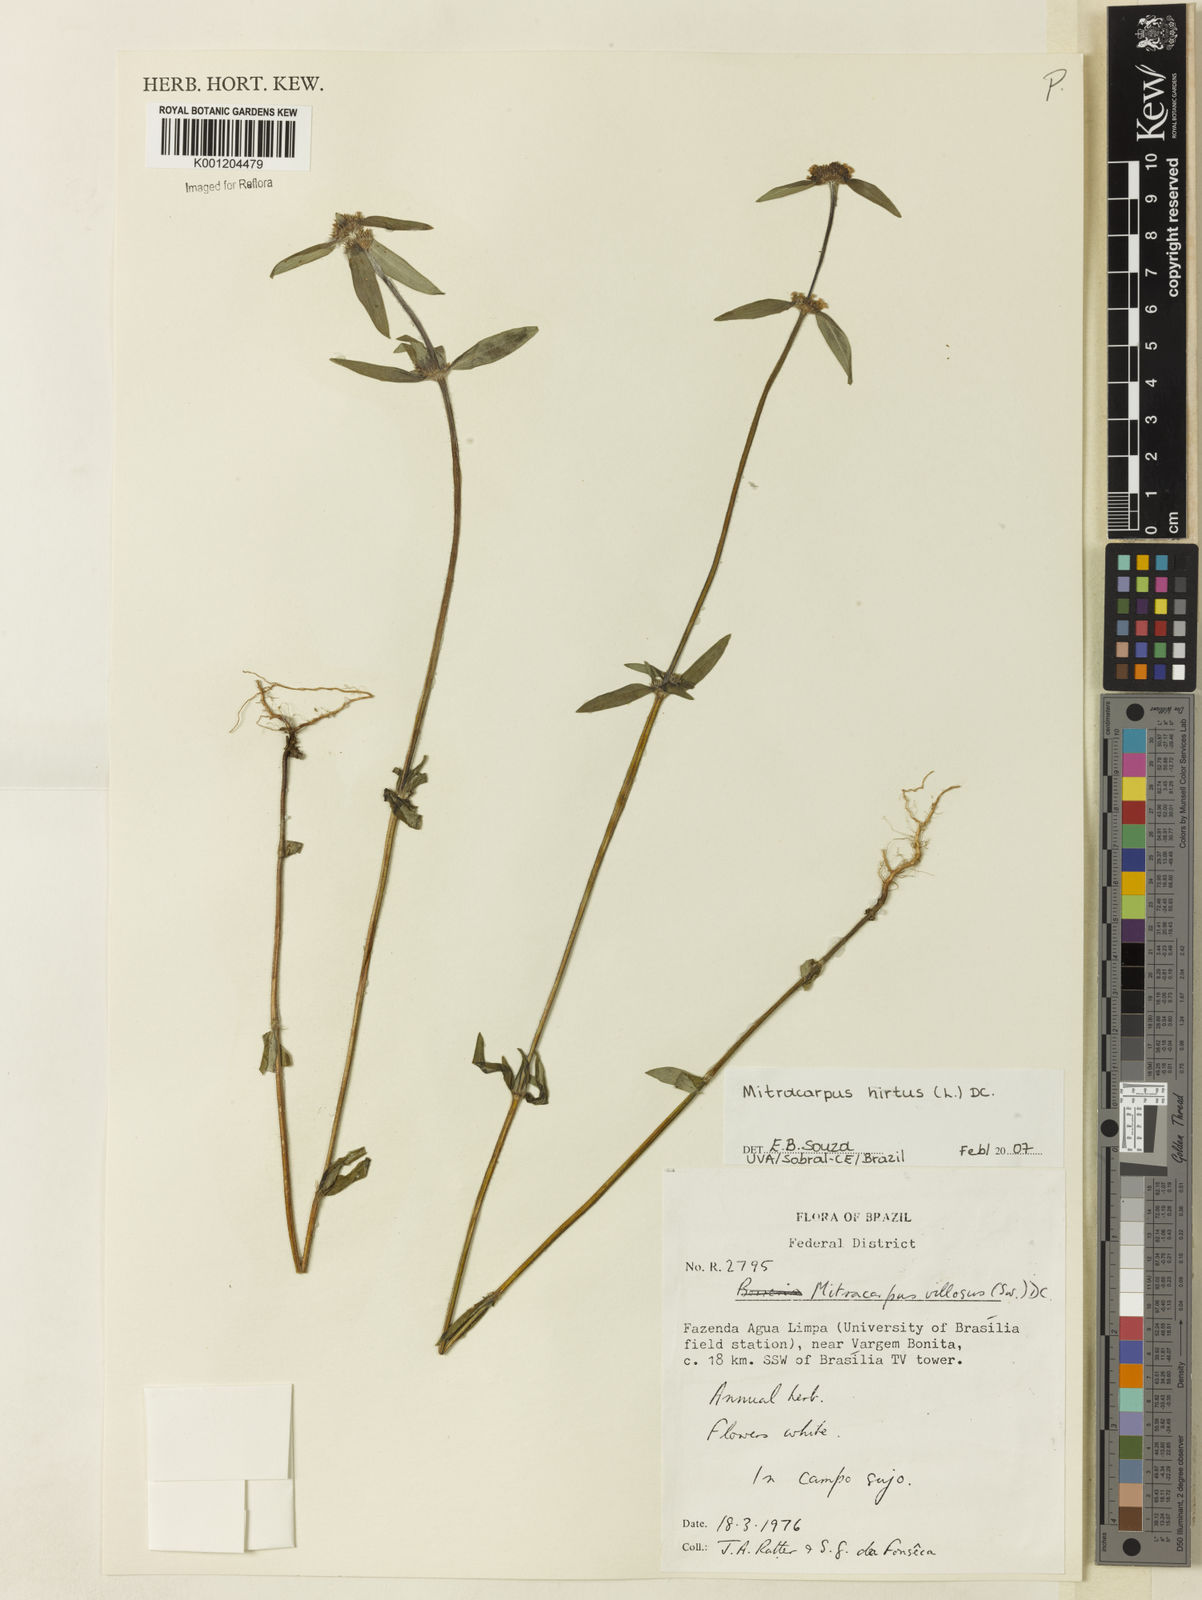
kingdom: Plantae
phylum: Tracheophyta
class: Magnoliopsida
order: Gentianales
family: Rubiaceae
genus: Mitracarpus
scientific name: Mitracarpus hirtus
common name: Tropical girdlepod
